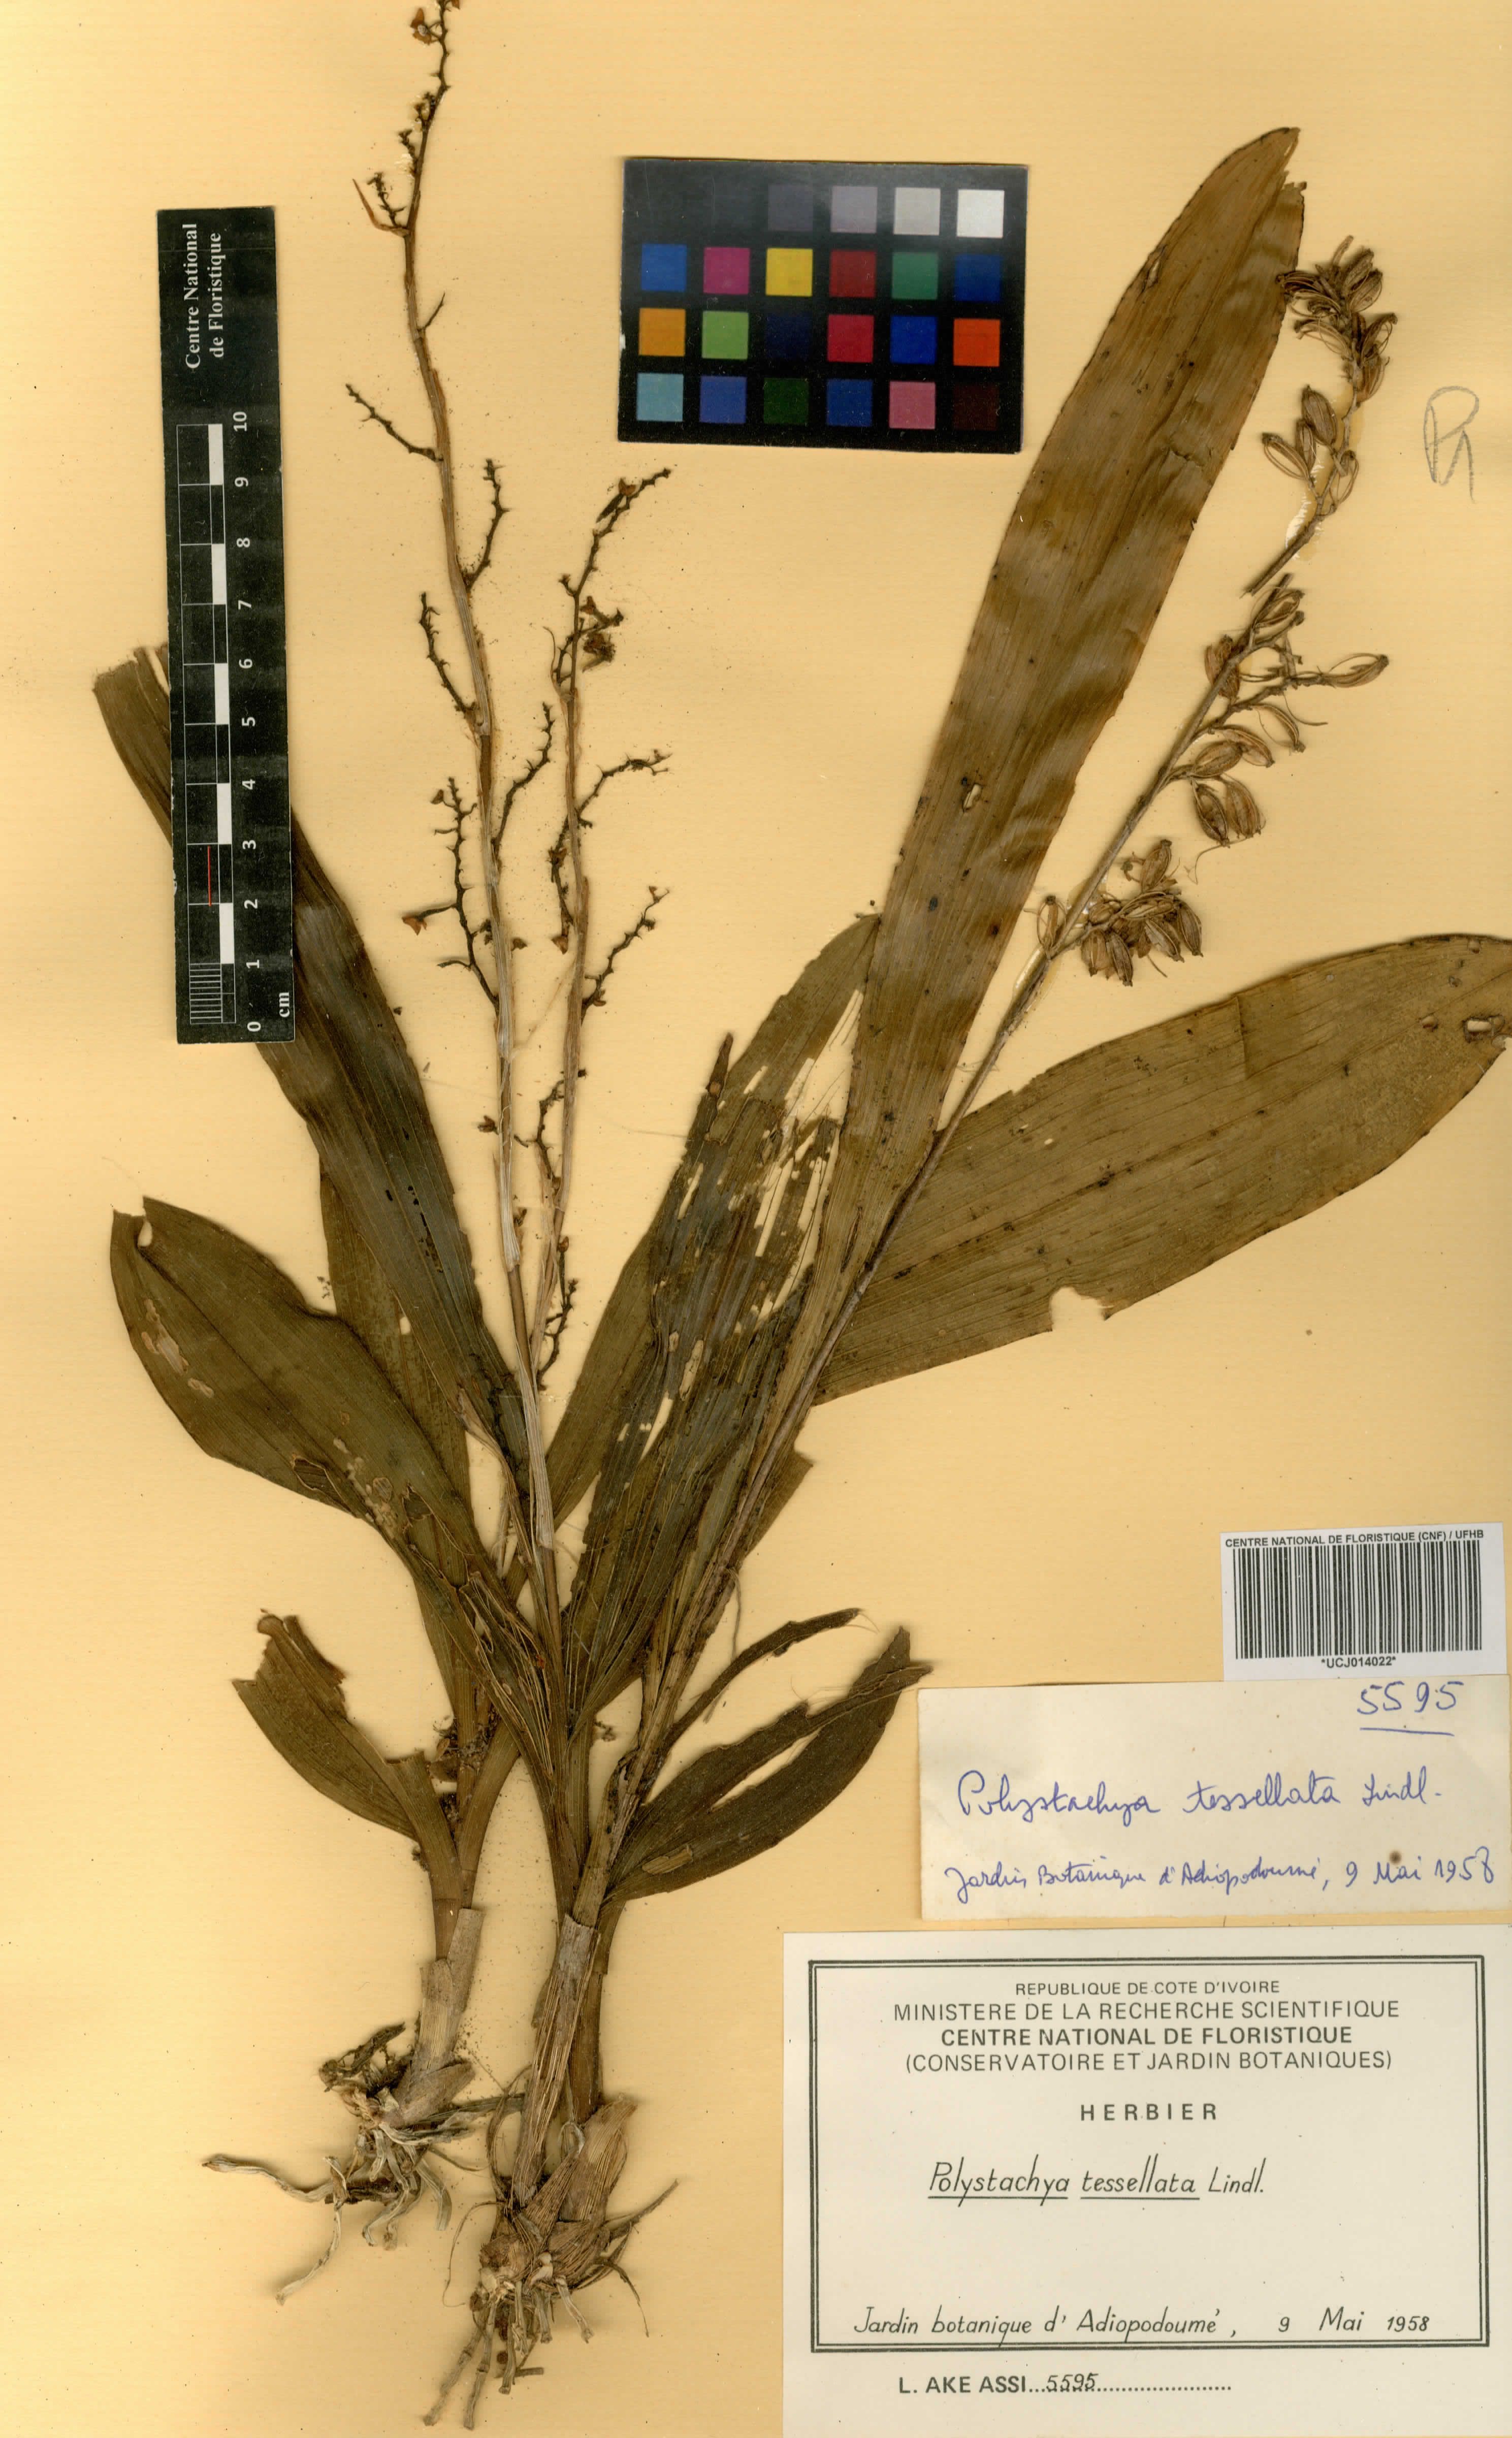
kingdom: Plantae
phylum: Tracheophyta
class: Liliopsida
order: Asparagales
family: Orchidaceae
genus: Polystachya
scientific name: Polystachya concreta
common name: Greater yellowspike orchid
